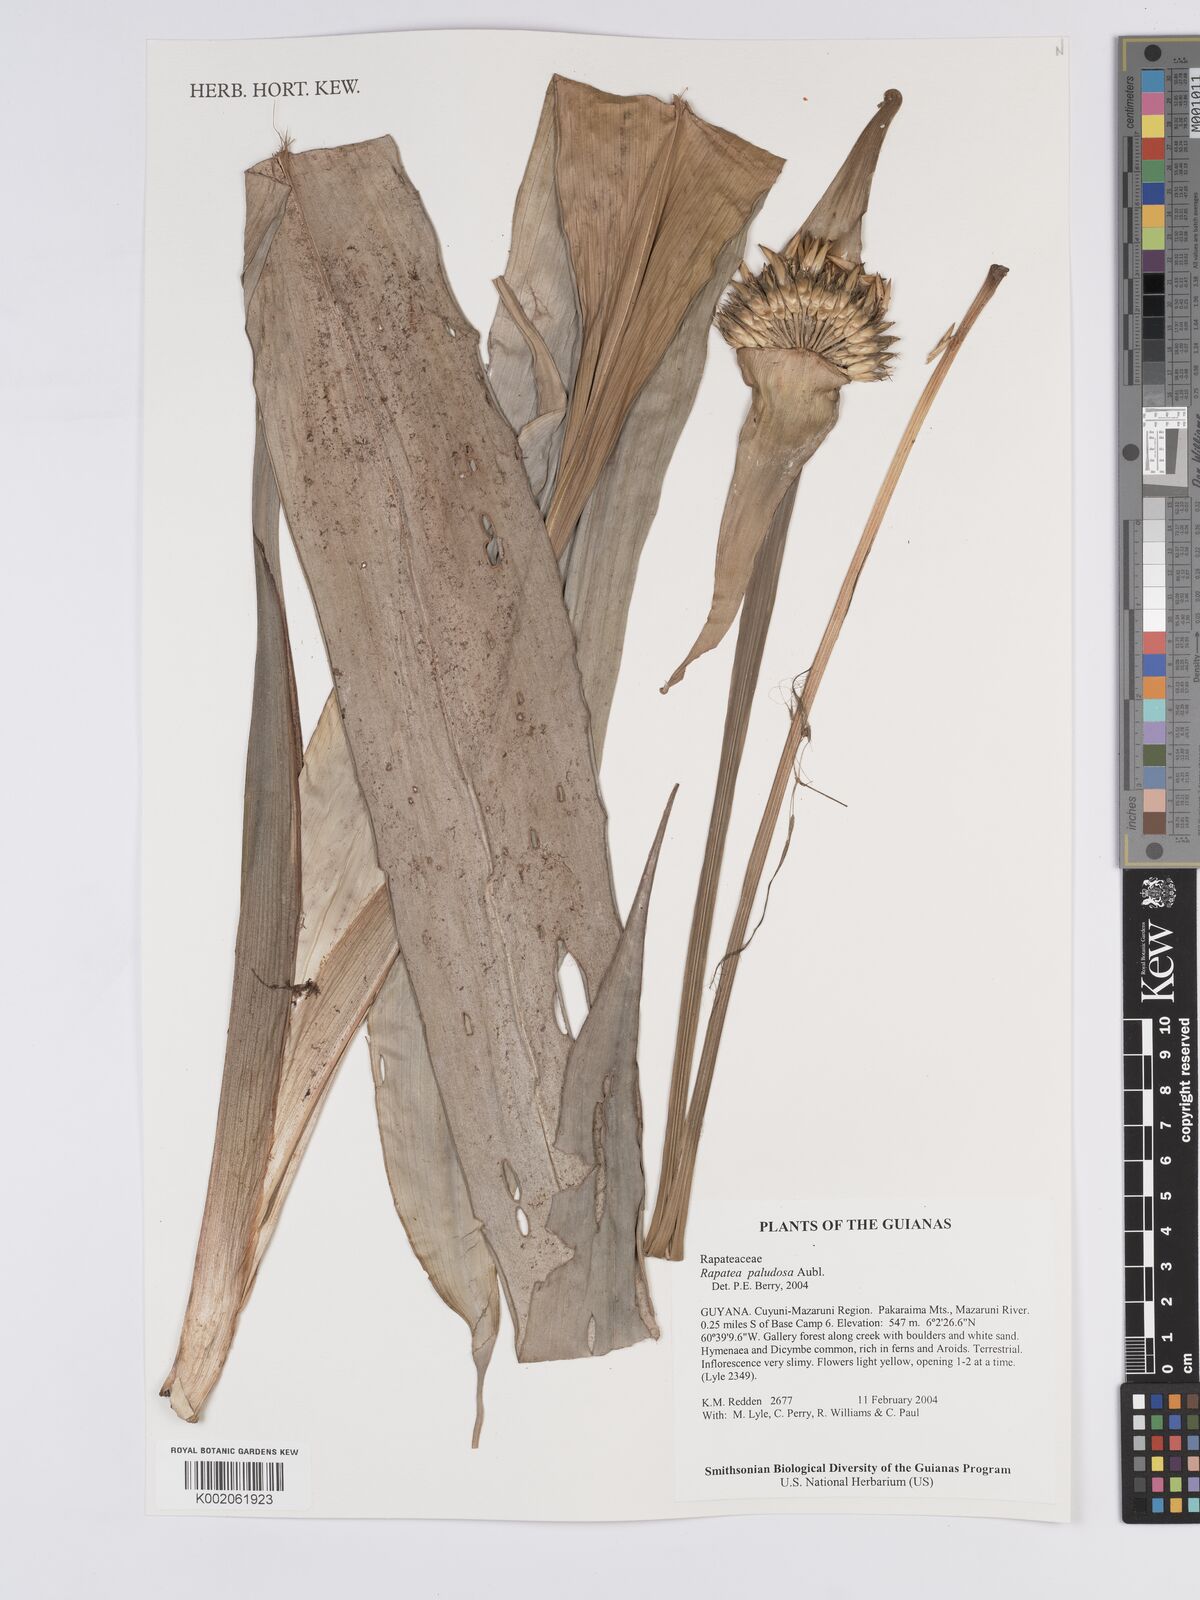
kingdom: Plantae
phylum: Tracheophyta
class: Liliopsida
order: Poales
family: Rapateaceae
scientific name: Rapateaceae
